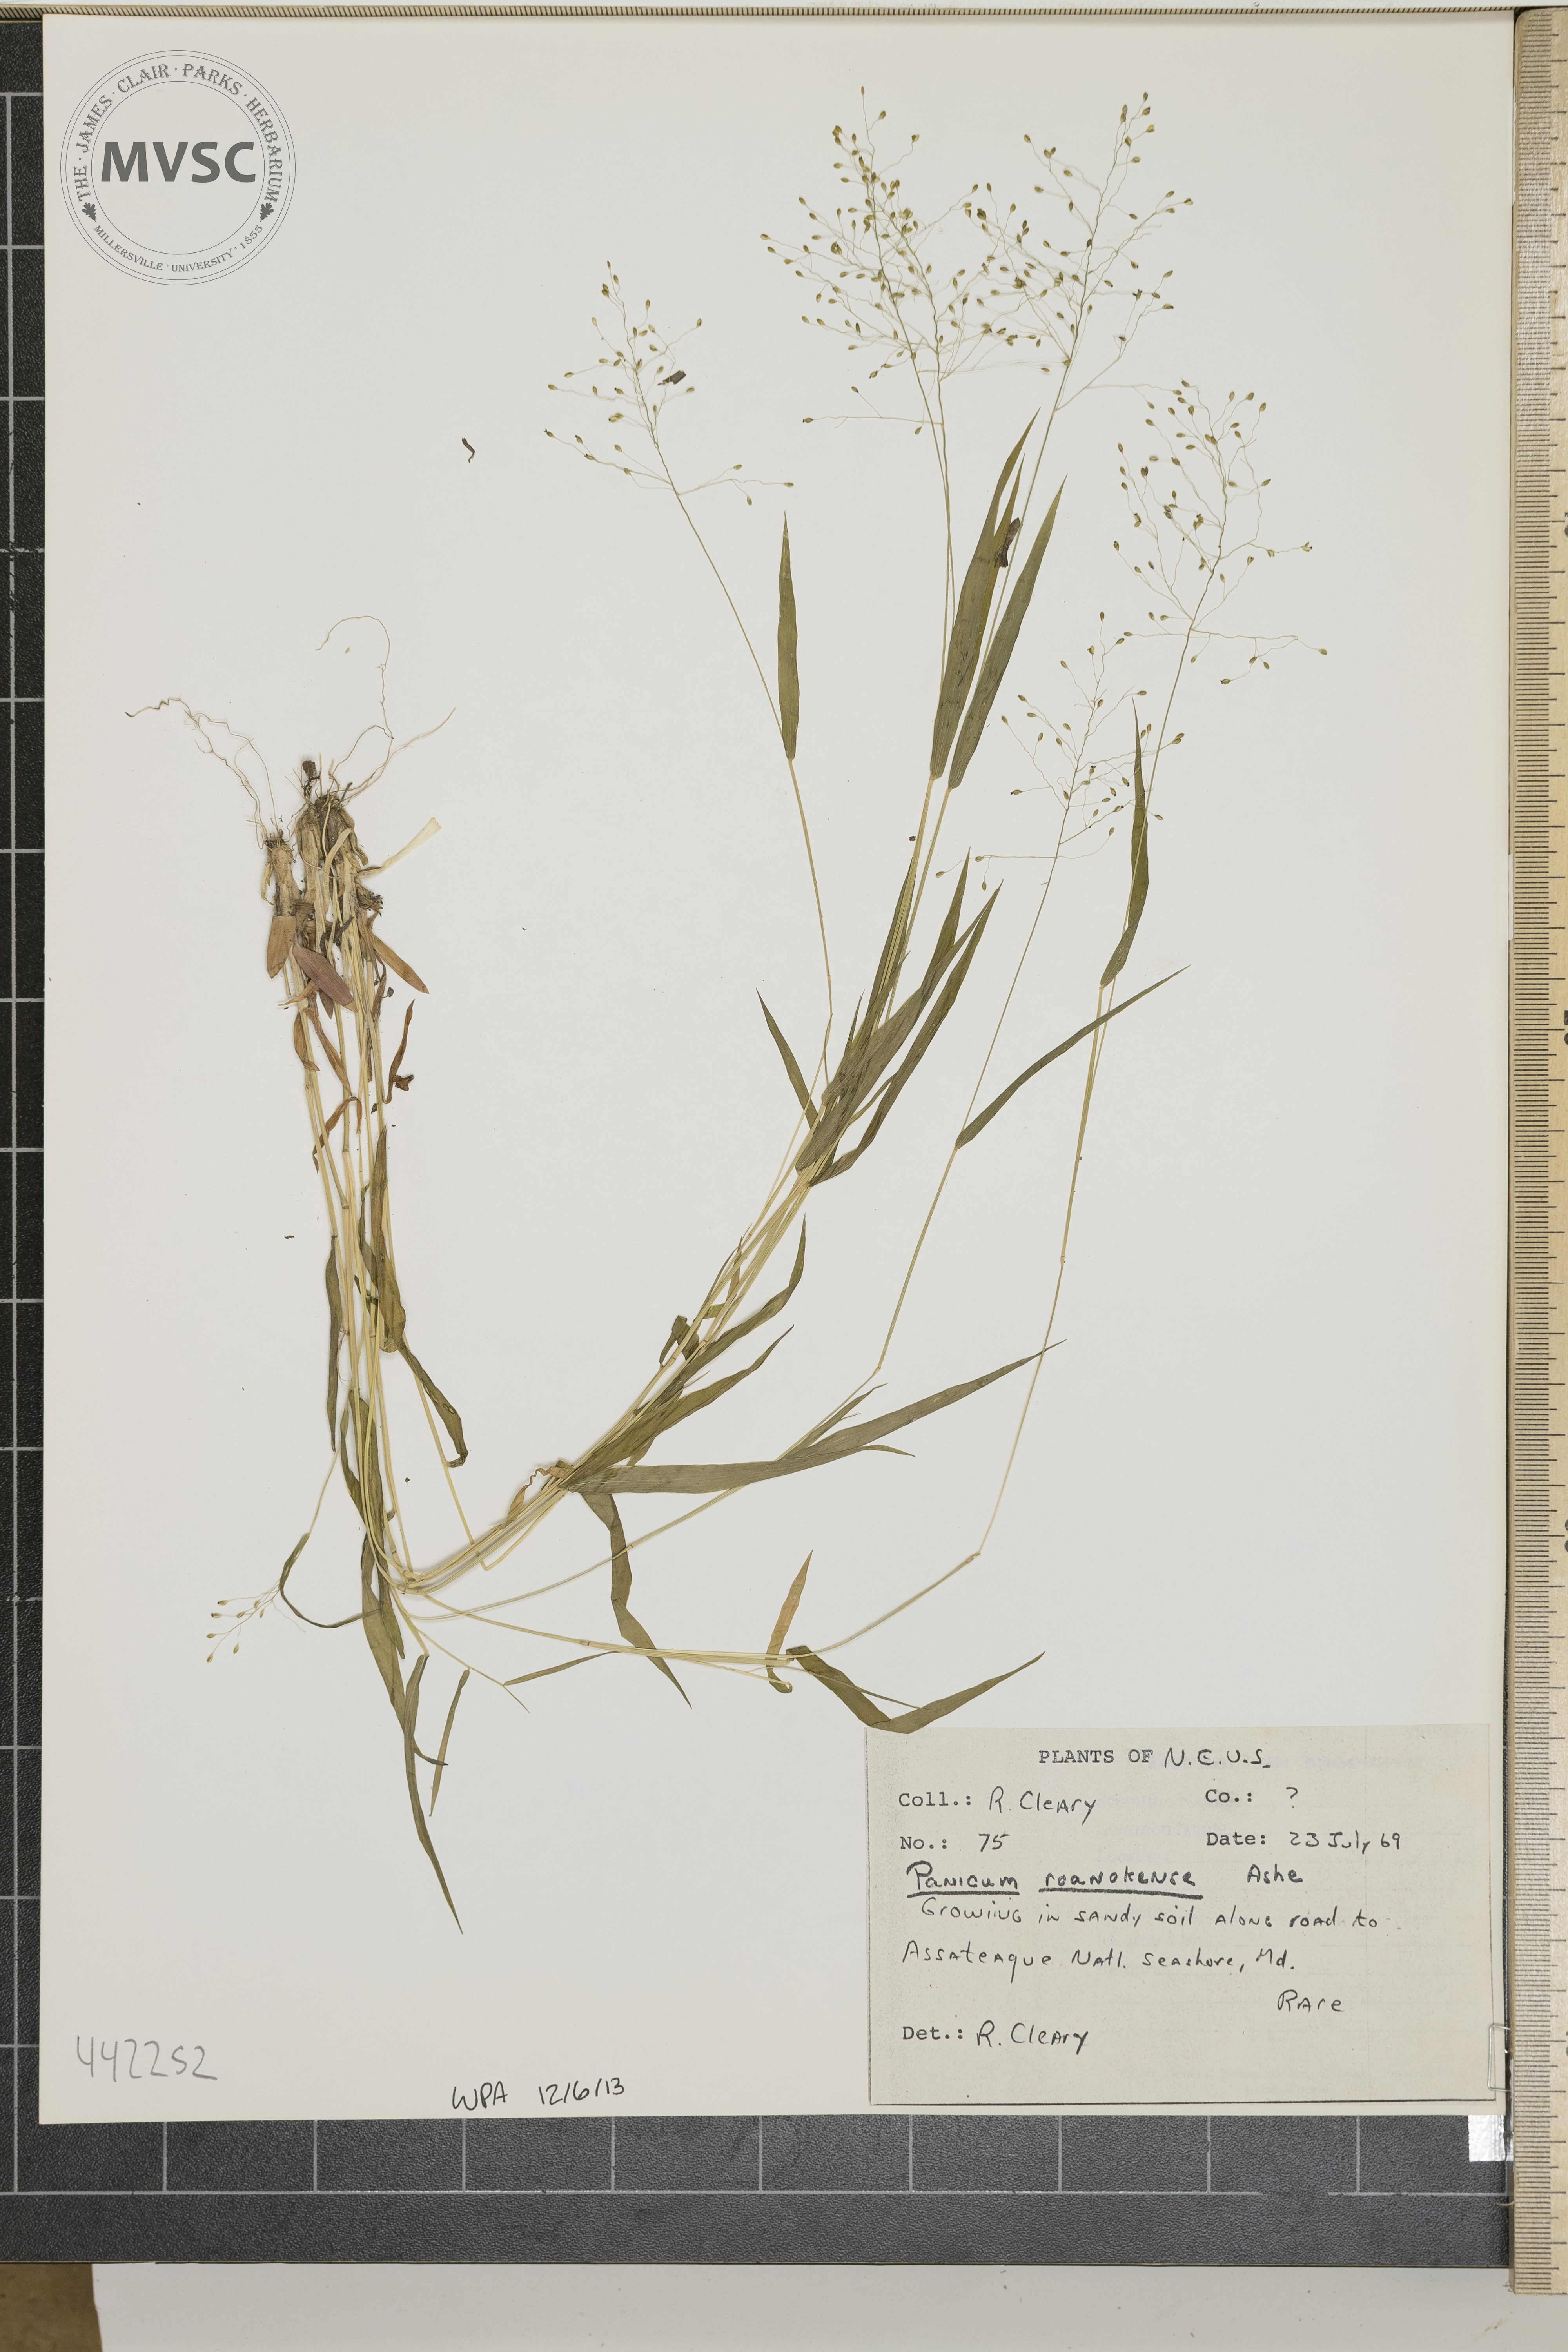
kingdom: Plantae
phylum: Tracheophyta
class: Liliopsida
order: Poales
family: Poaceae
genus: Dichanthelium
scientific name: Dichanthelium roanokense
